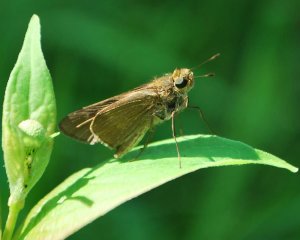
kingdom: Animalia
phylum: Arthropoda
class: Insecta
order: Lepidoptera
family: Hesperiidae
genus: Panoquina
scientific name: Panoquina ocola
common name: Ocola Skipper
